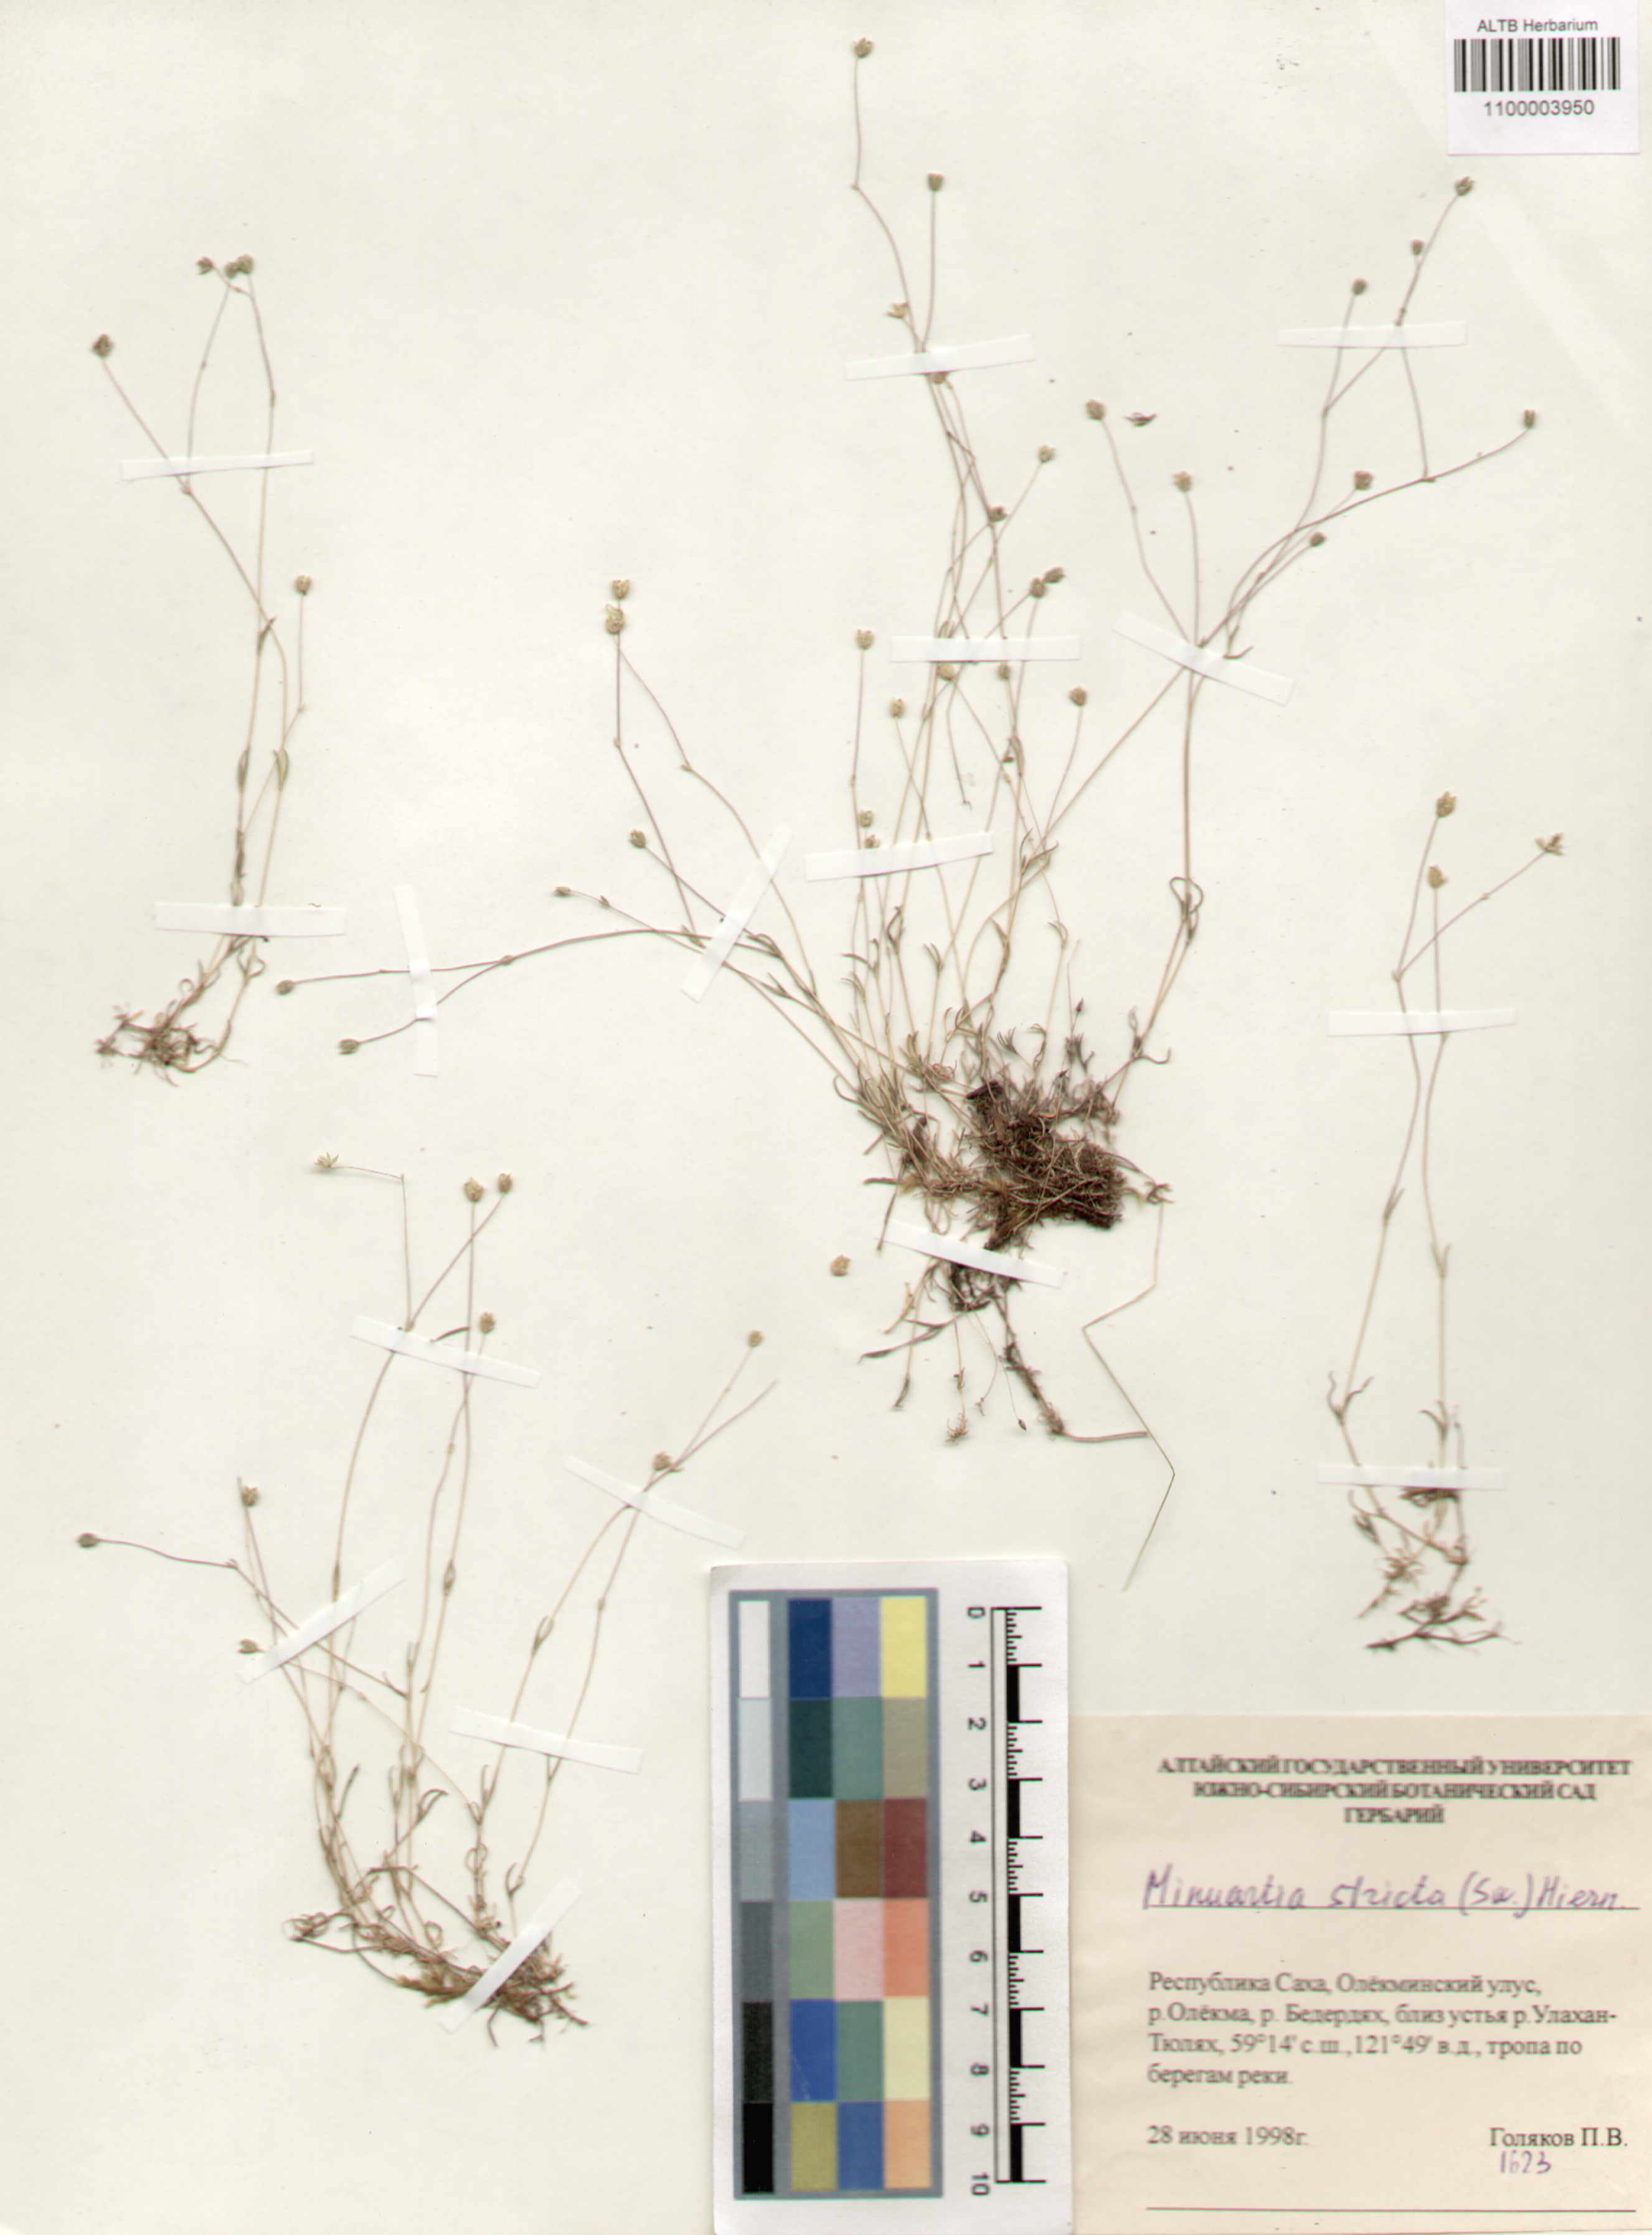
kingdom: Plantae
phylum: Tracheophyta
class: Magnoliopsida
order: Caryophyllales
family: Caryophyllaceae
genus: Sabulina
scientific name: Sabulina stricta
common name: Bog sandwort
